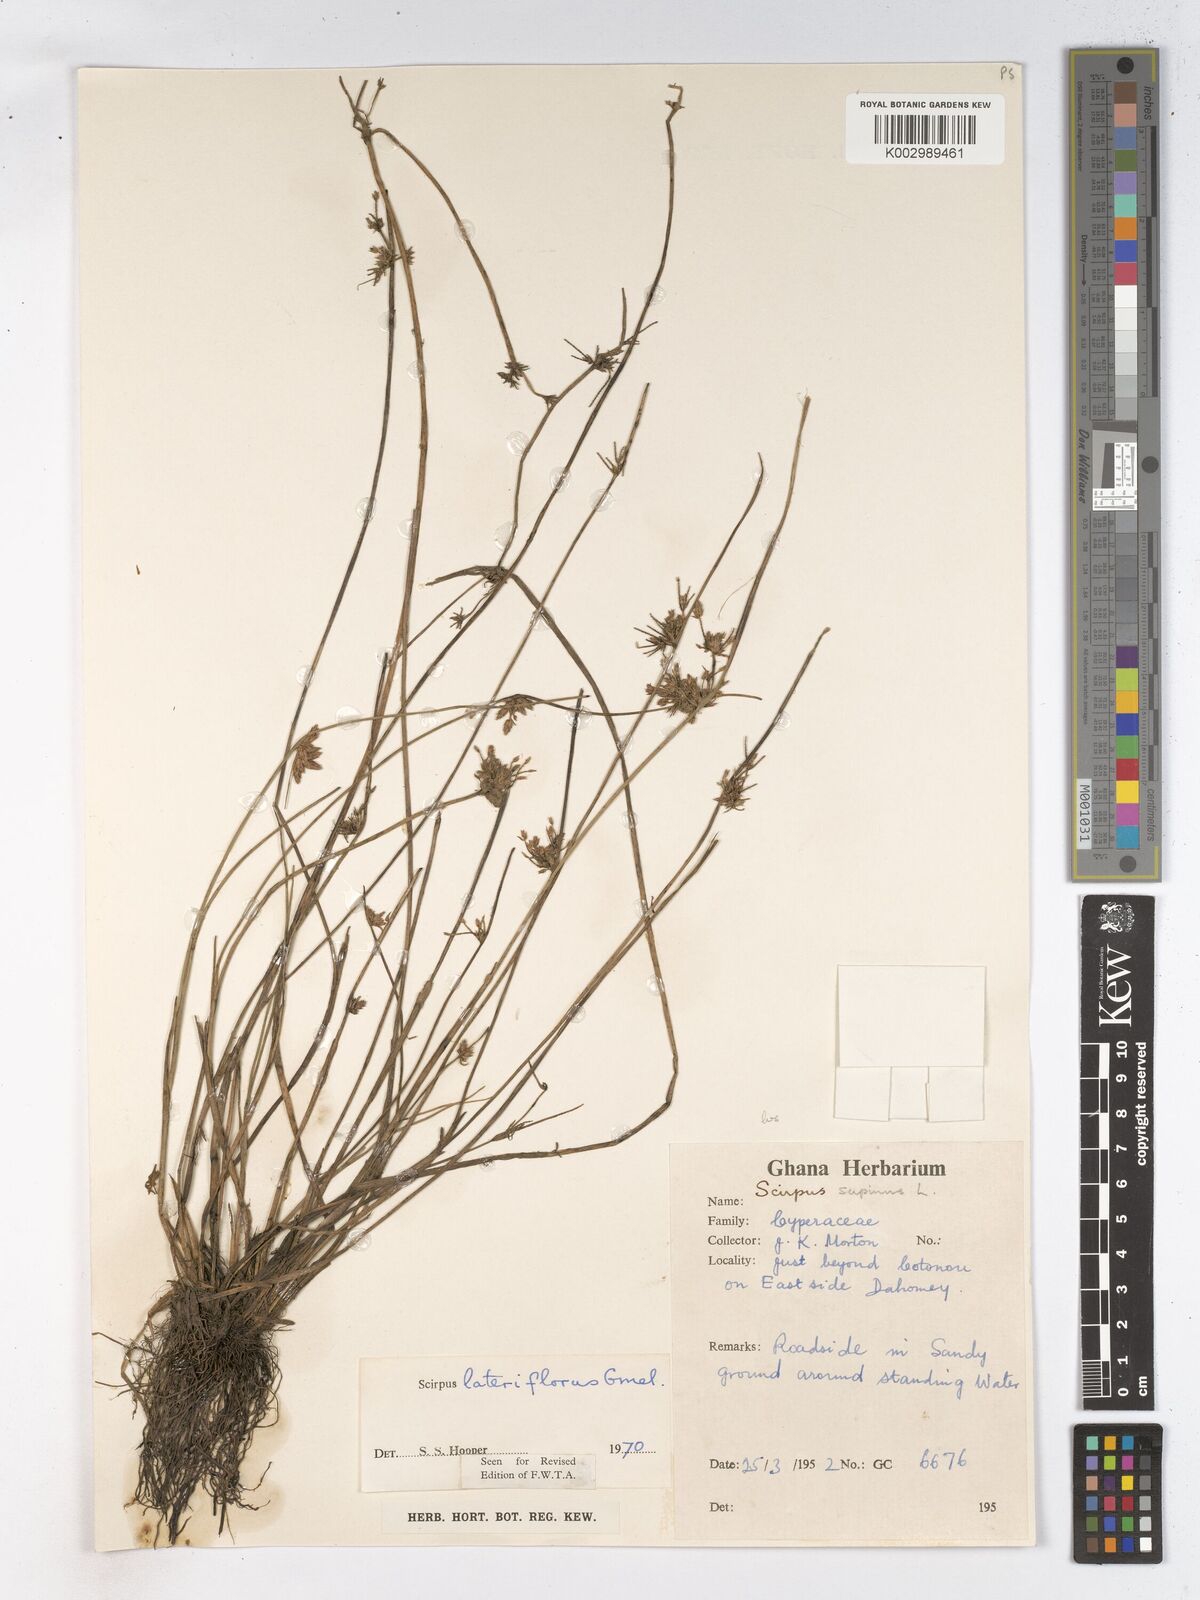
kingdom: Plantae
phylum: Tracheophyta
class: Liliopsida
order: Poales
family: Cyperaceae
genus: Schoenoplectiella
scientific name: Schoenoplectiella lateriflora
